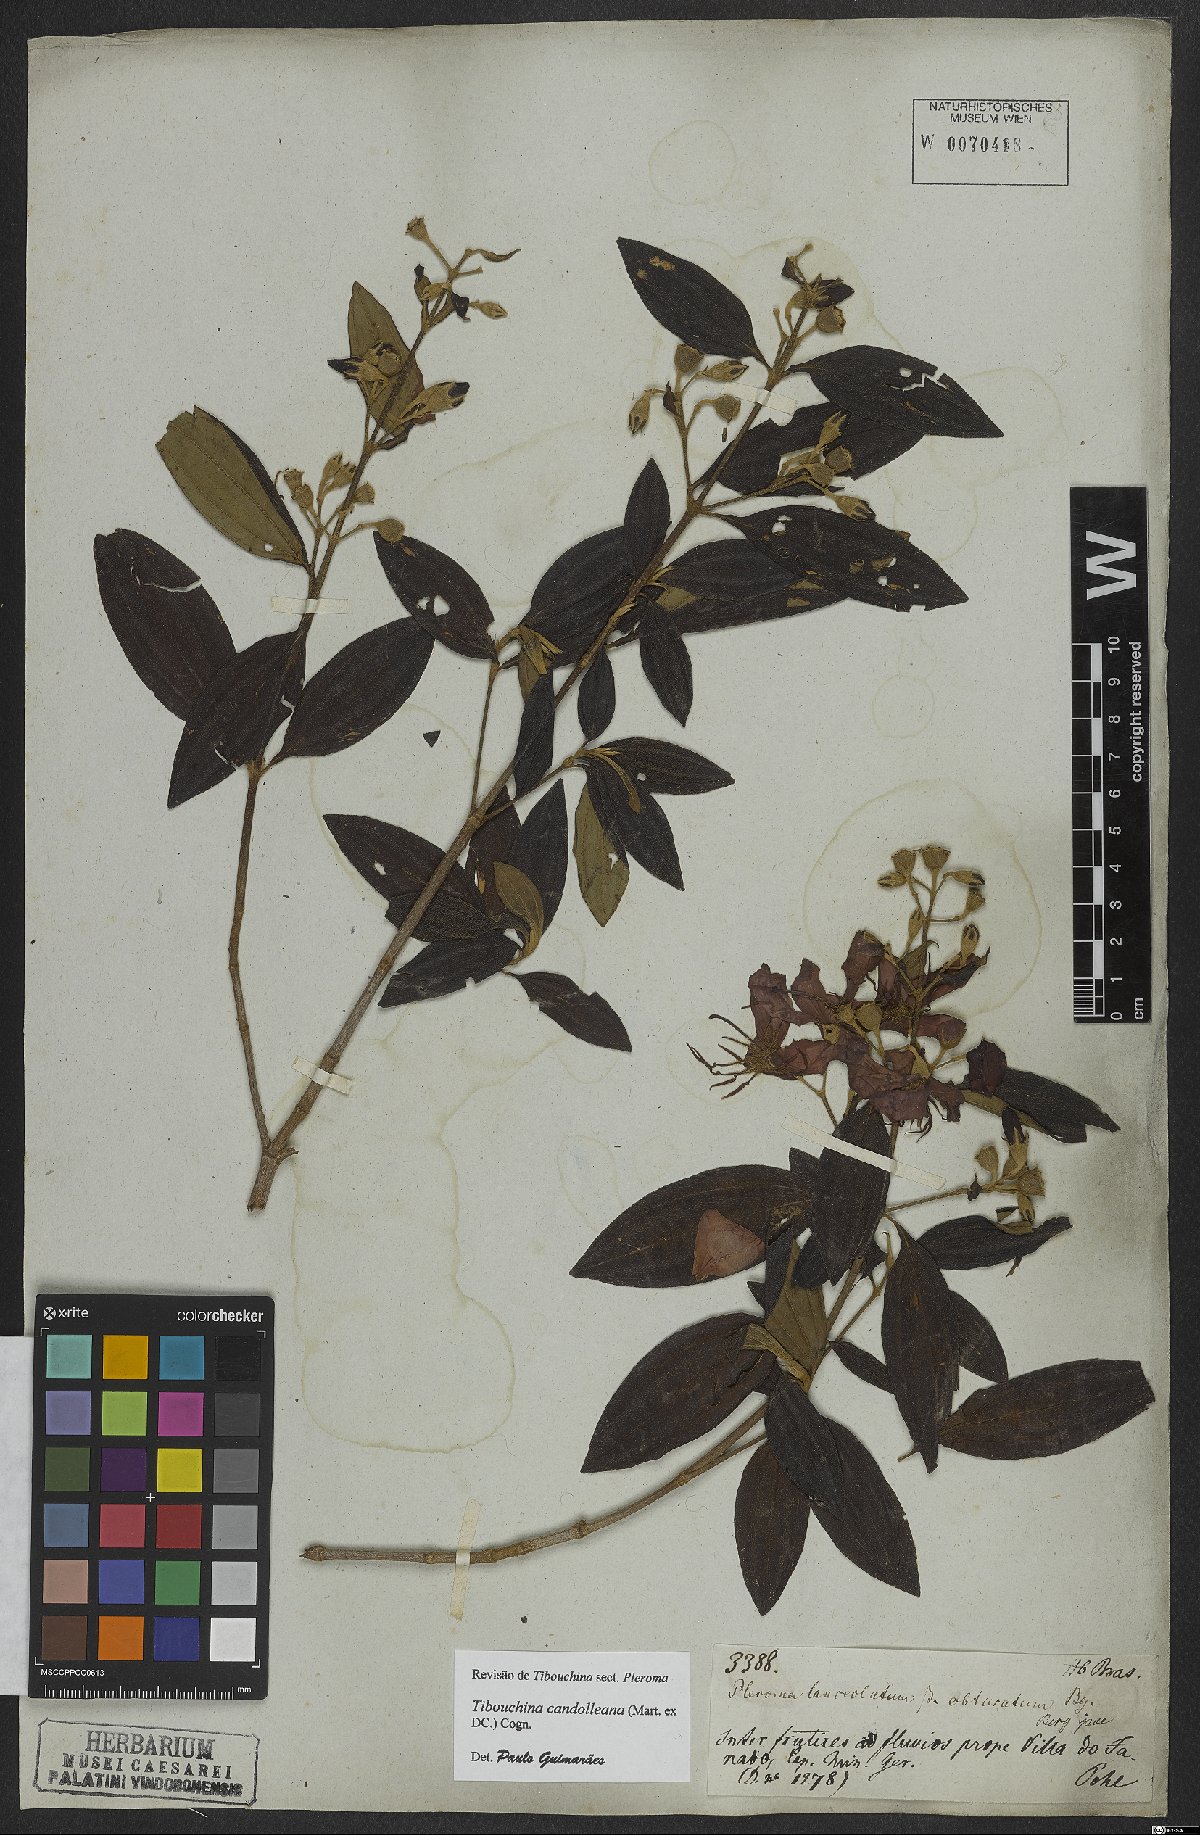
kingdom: Plantae
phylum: Tracheophyta
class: Magnoliopsida
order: Myrtales
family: Melastomataceae
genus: Pleroma
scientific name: Pleroma candolleanum
